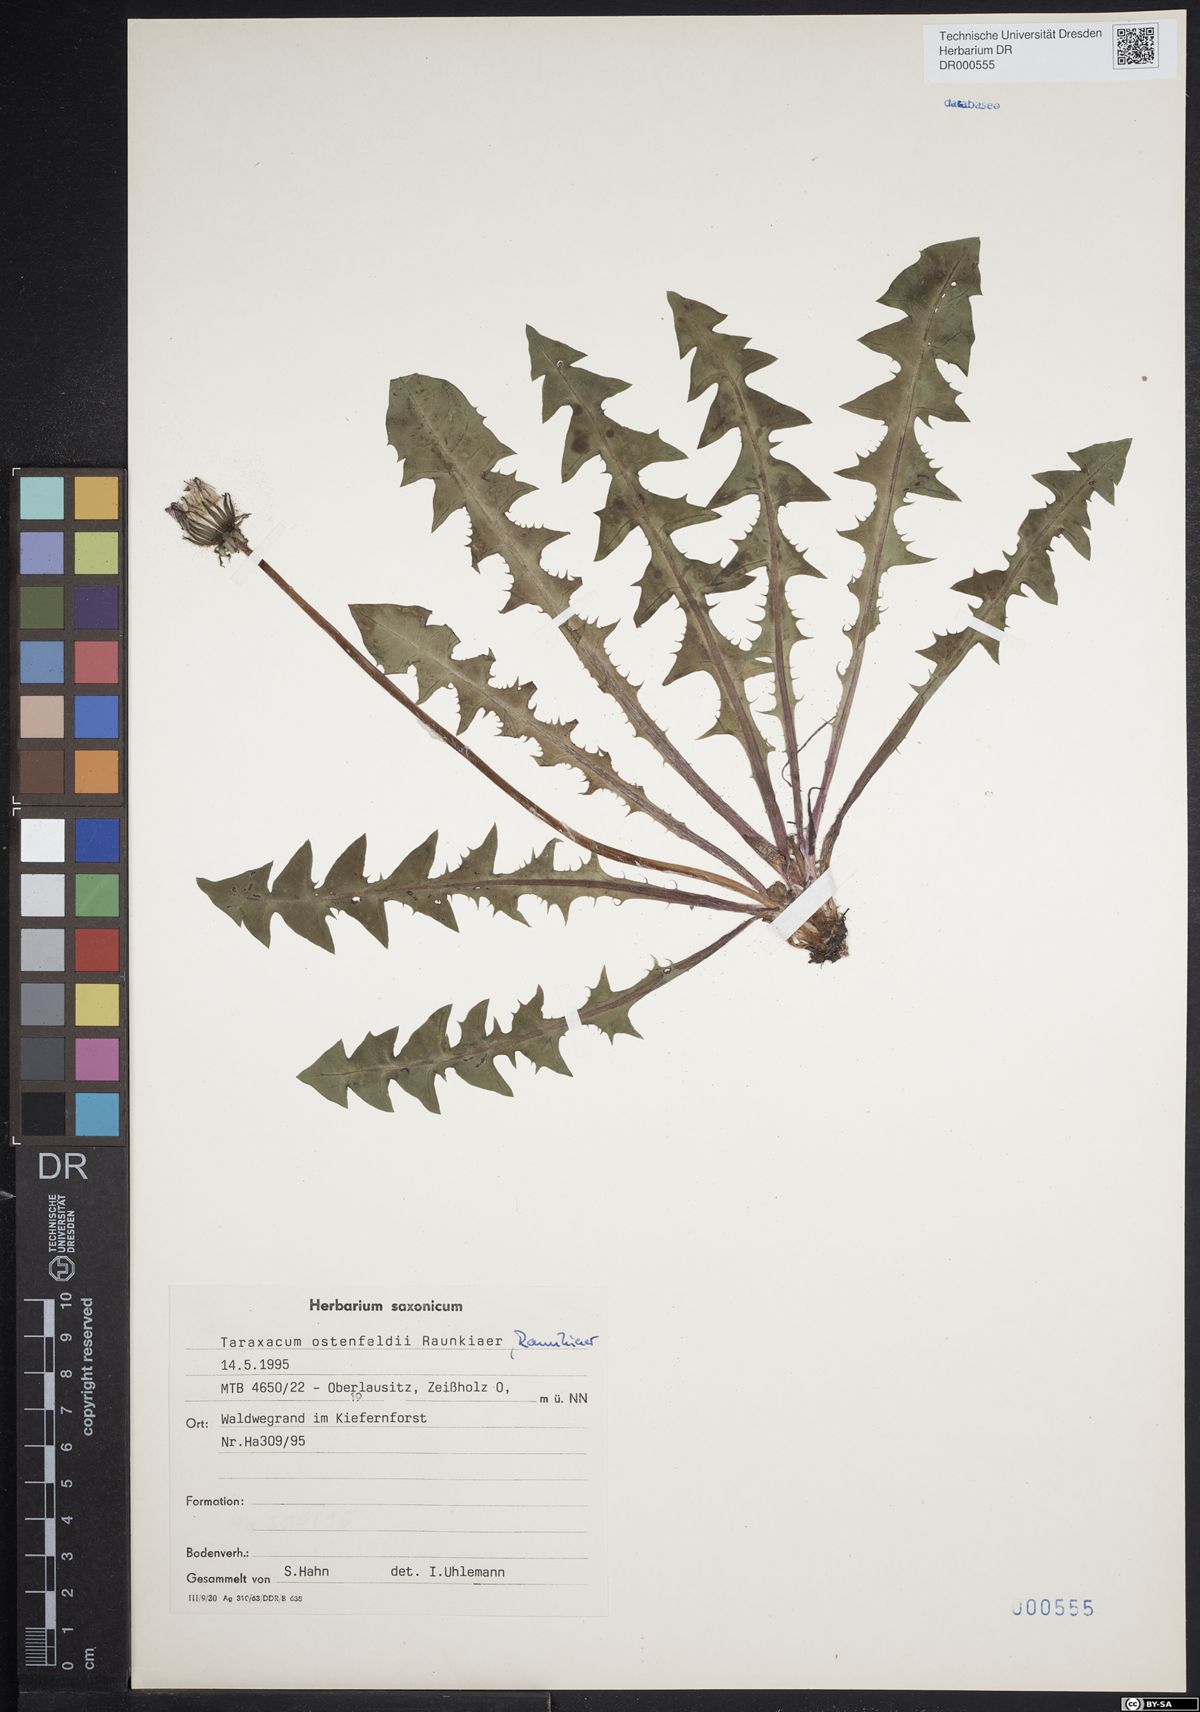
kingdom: Plantae
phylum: Tracheophyta
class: Magnoliopsida
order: Asterales
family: Asteraceae
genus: Taraxacum
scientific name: Taraxacum ostenfeldii
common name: Ostenfeld's dandelion
